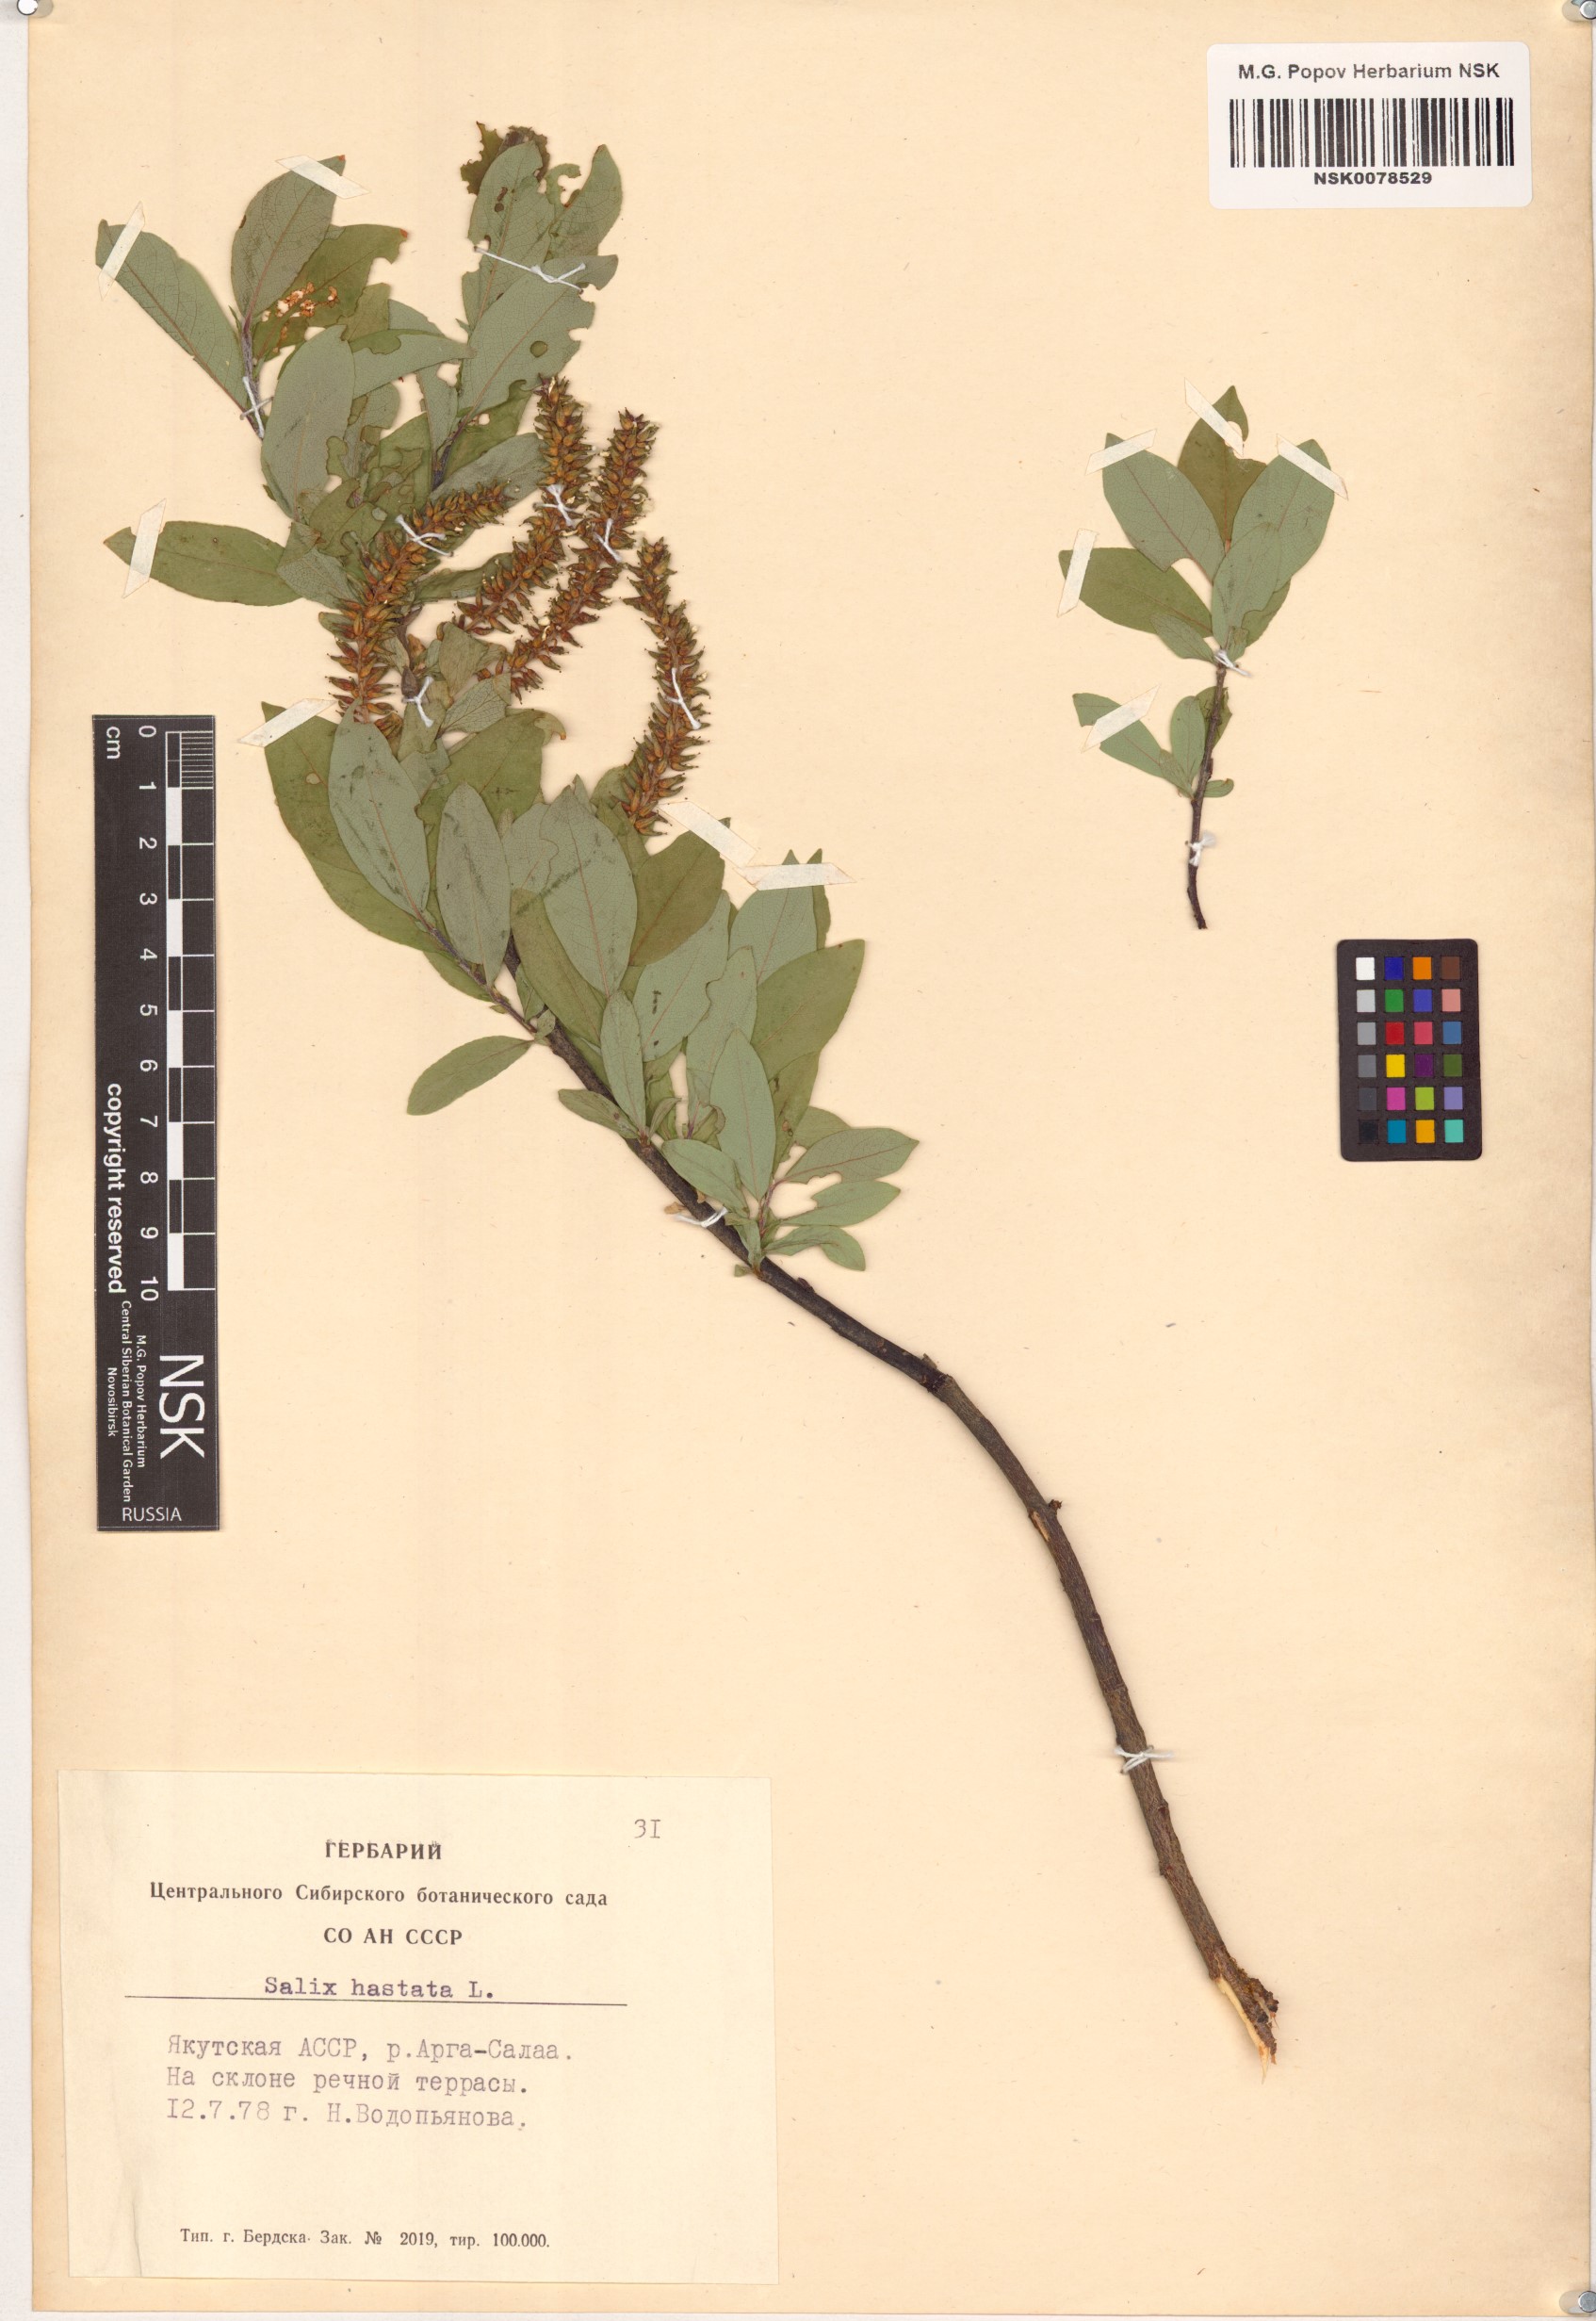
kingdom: Plantae
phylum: Tracheophyta
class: Magnoliopsida
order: Malpighiales
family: Salicaceae
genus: Salix
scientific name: Salix hastata
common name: Halberd willow
